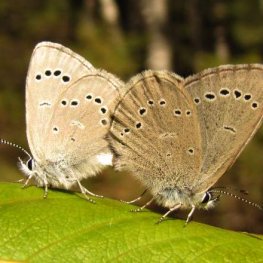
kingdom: Animalia
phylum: Arthropoda
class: Insecta
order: Lepidoptera
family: Lycaenidae
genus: Glaucopsyche
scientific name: Glaucopsyche lygdamus
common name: Silvery Blue
